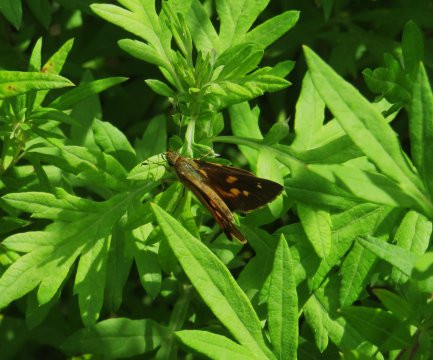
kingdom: Animalia
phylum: Arthropoda
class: Insecta
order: Lepidoptera
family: Hesperiidae
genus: Poanes
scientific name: Poanes viator
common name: Broad-winged Skipper
